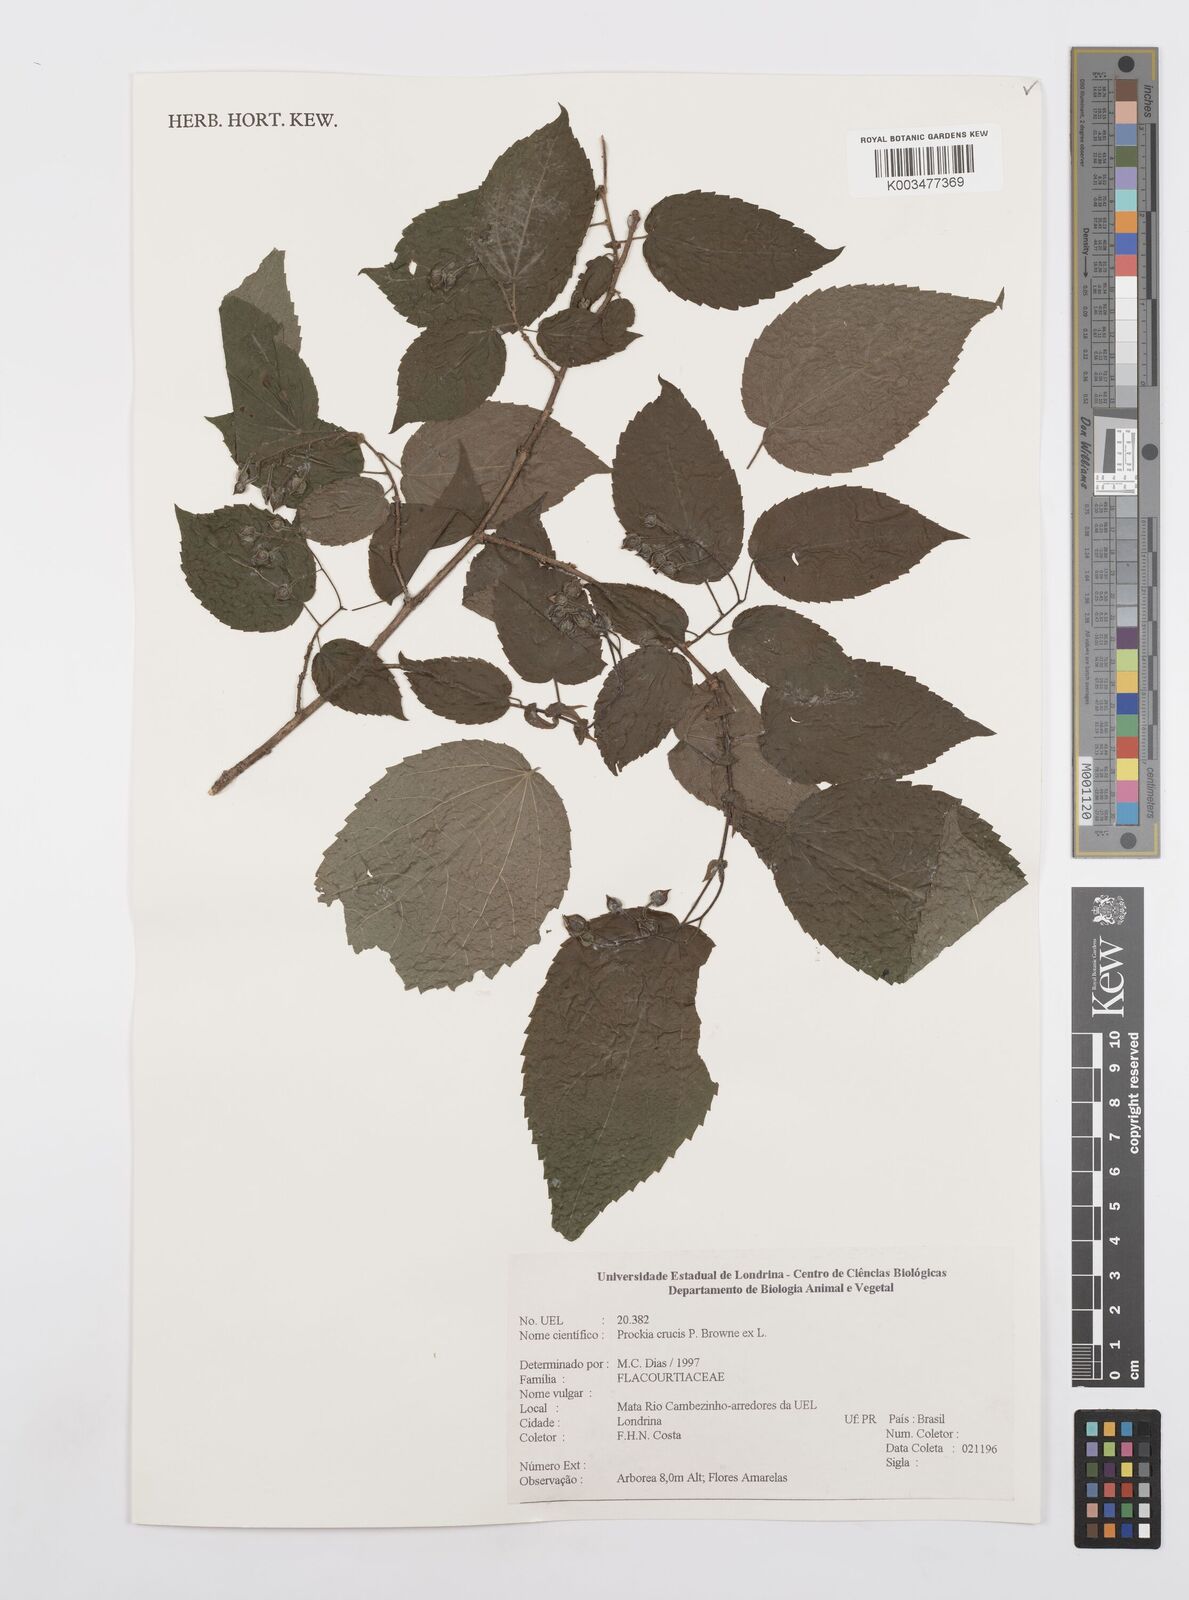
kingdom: Plantae
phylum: Tracheophyta
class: Magnoliopsida
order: Malpighiales
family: Salicaceae
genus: Prockia
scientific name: Prockia crucis
